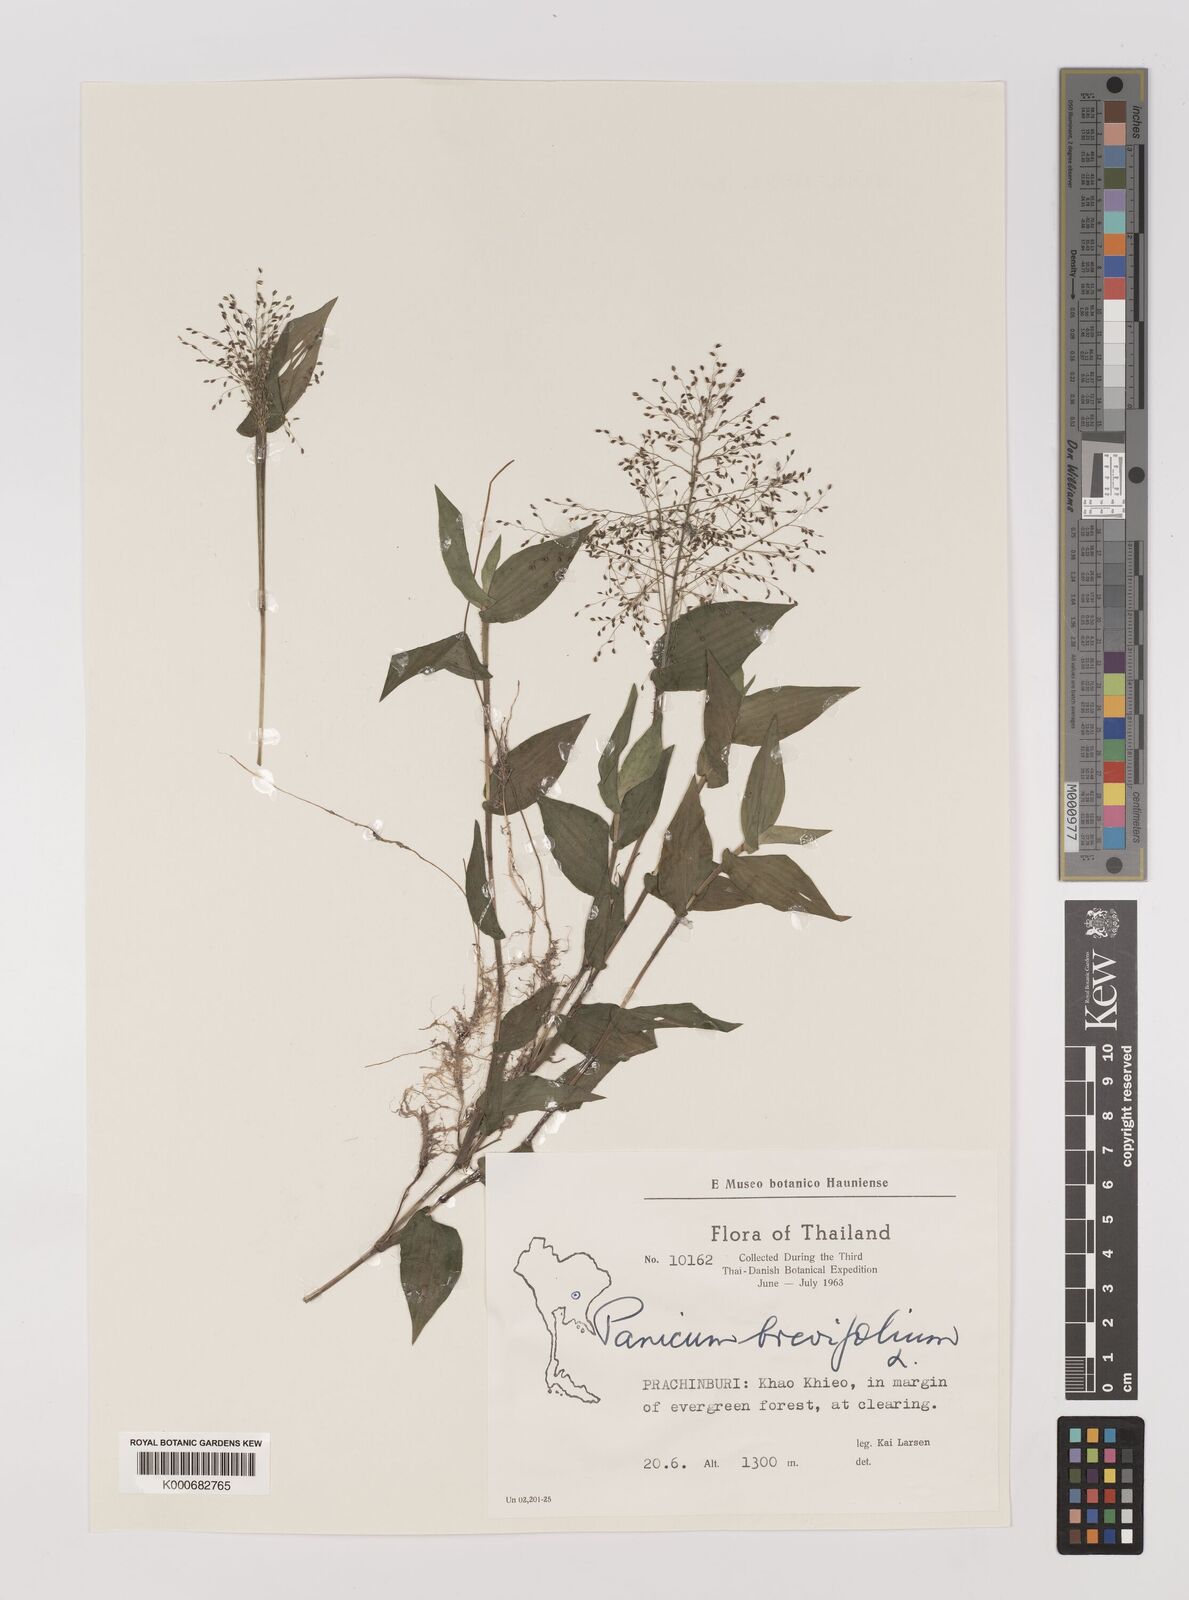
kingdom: Plantae
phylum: Tracheophyta
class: Liliopsida
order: Poales
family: Poaceae
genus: Panicum
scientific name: Panicum brevifolium
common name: Shortleaf panic grass
